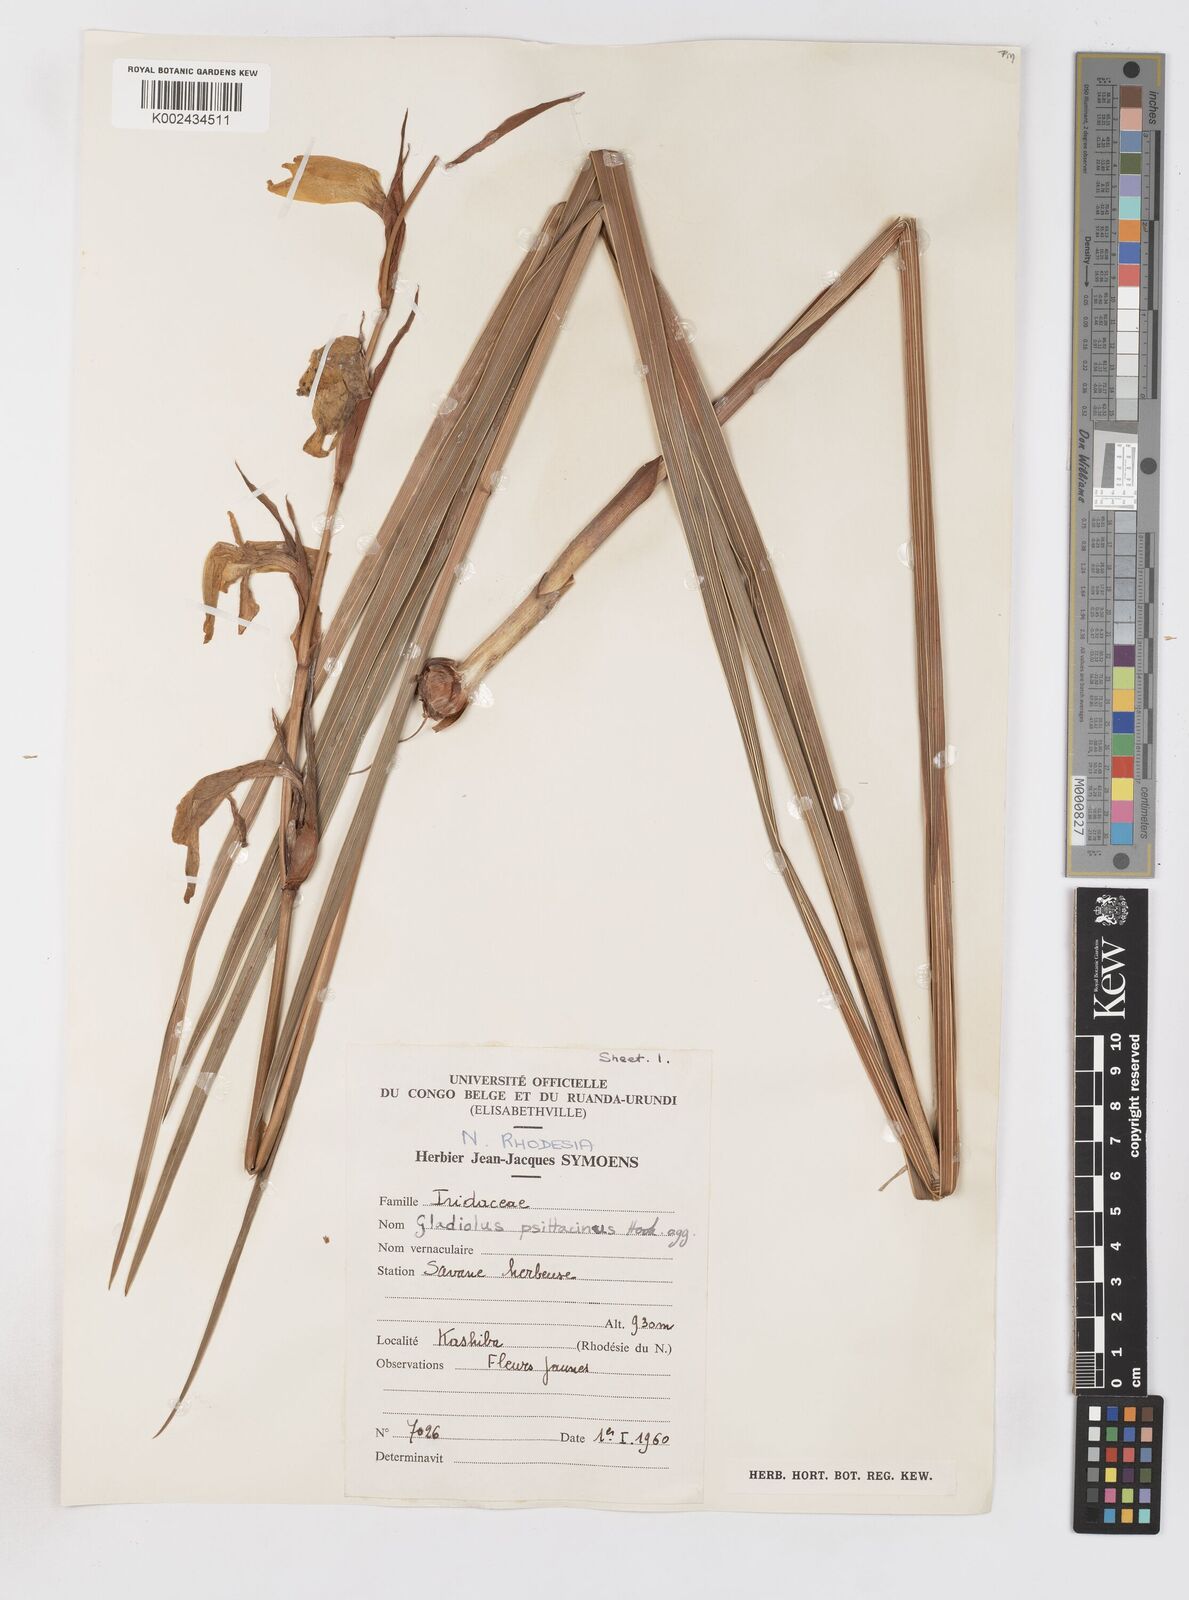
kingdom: Plantae
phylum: Tracheophyta
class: Liliopsida
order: Asparagales
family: Iridaceae
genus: Gladiolus
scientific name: Gladiolus dalenii
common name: Cornflag
